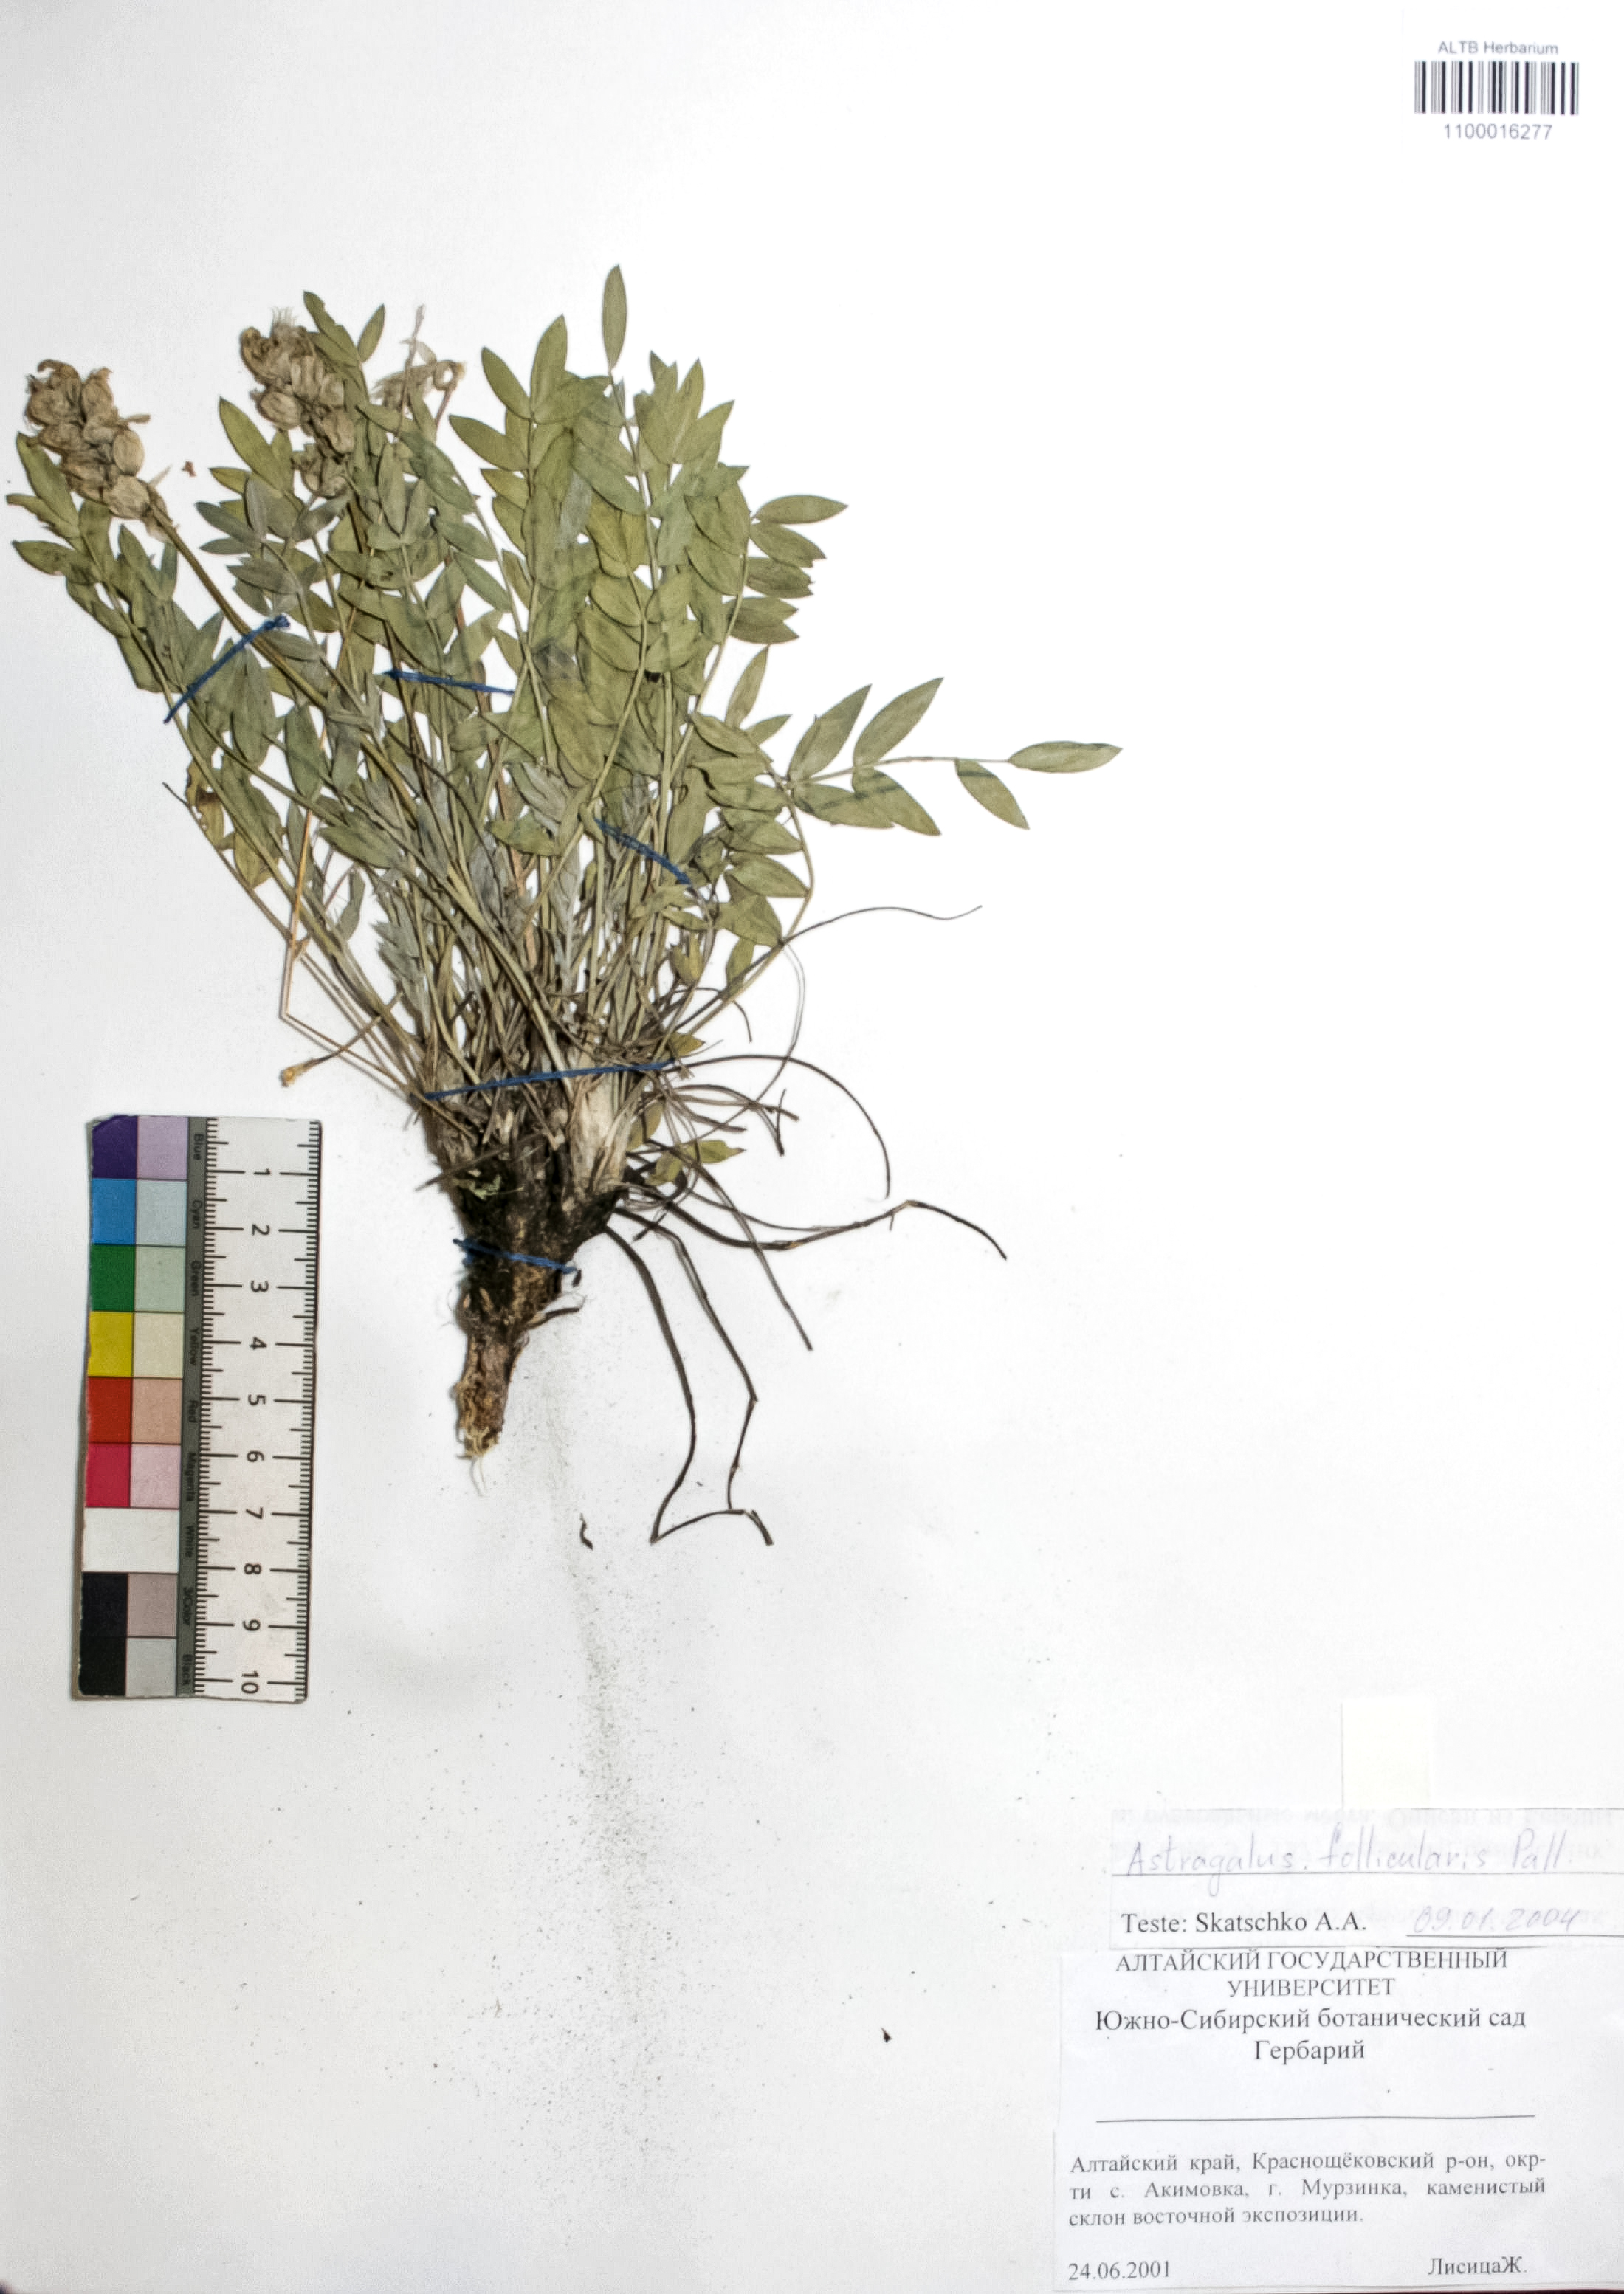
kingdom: Plantae
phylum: Tracheophyta
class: Magnoliopsida
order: Fabales
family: Fabaceae
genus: Astragalus
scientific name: Astragalus follicularis
